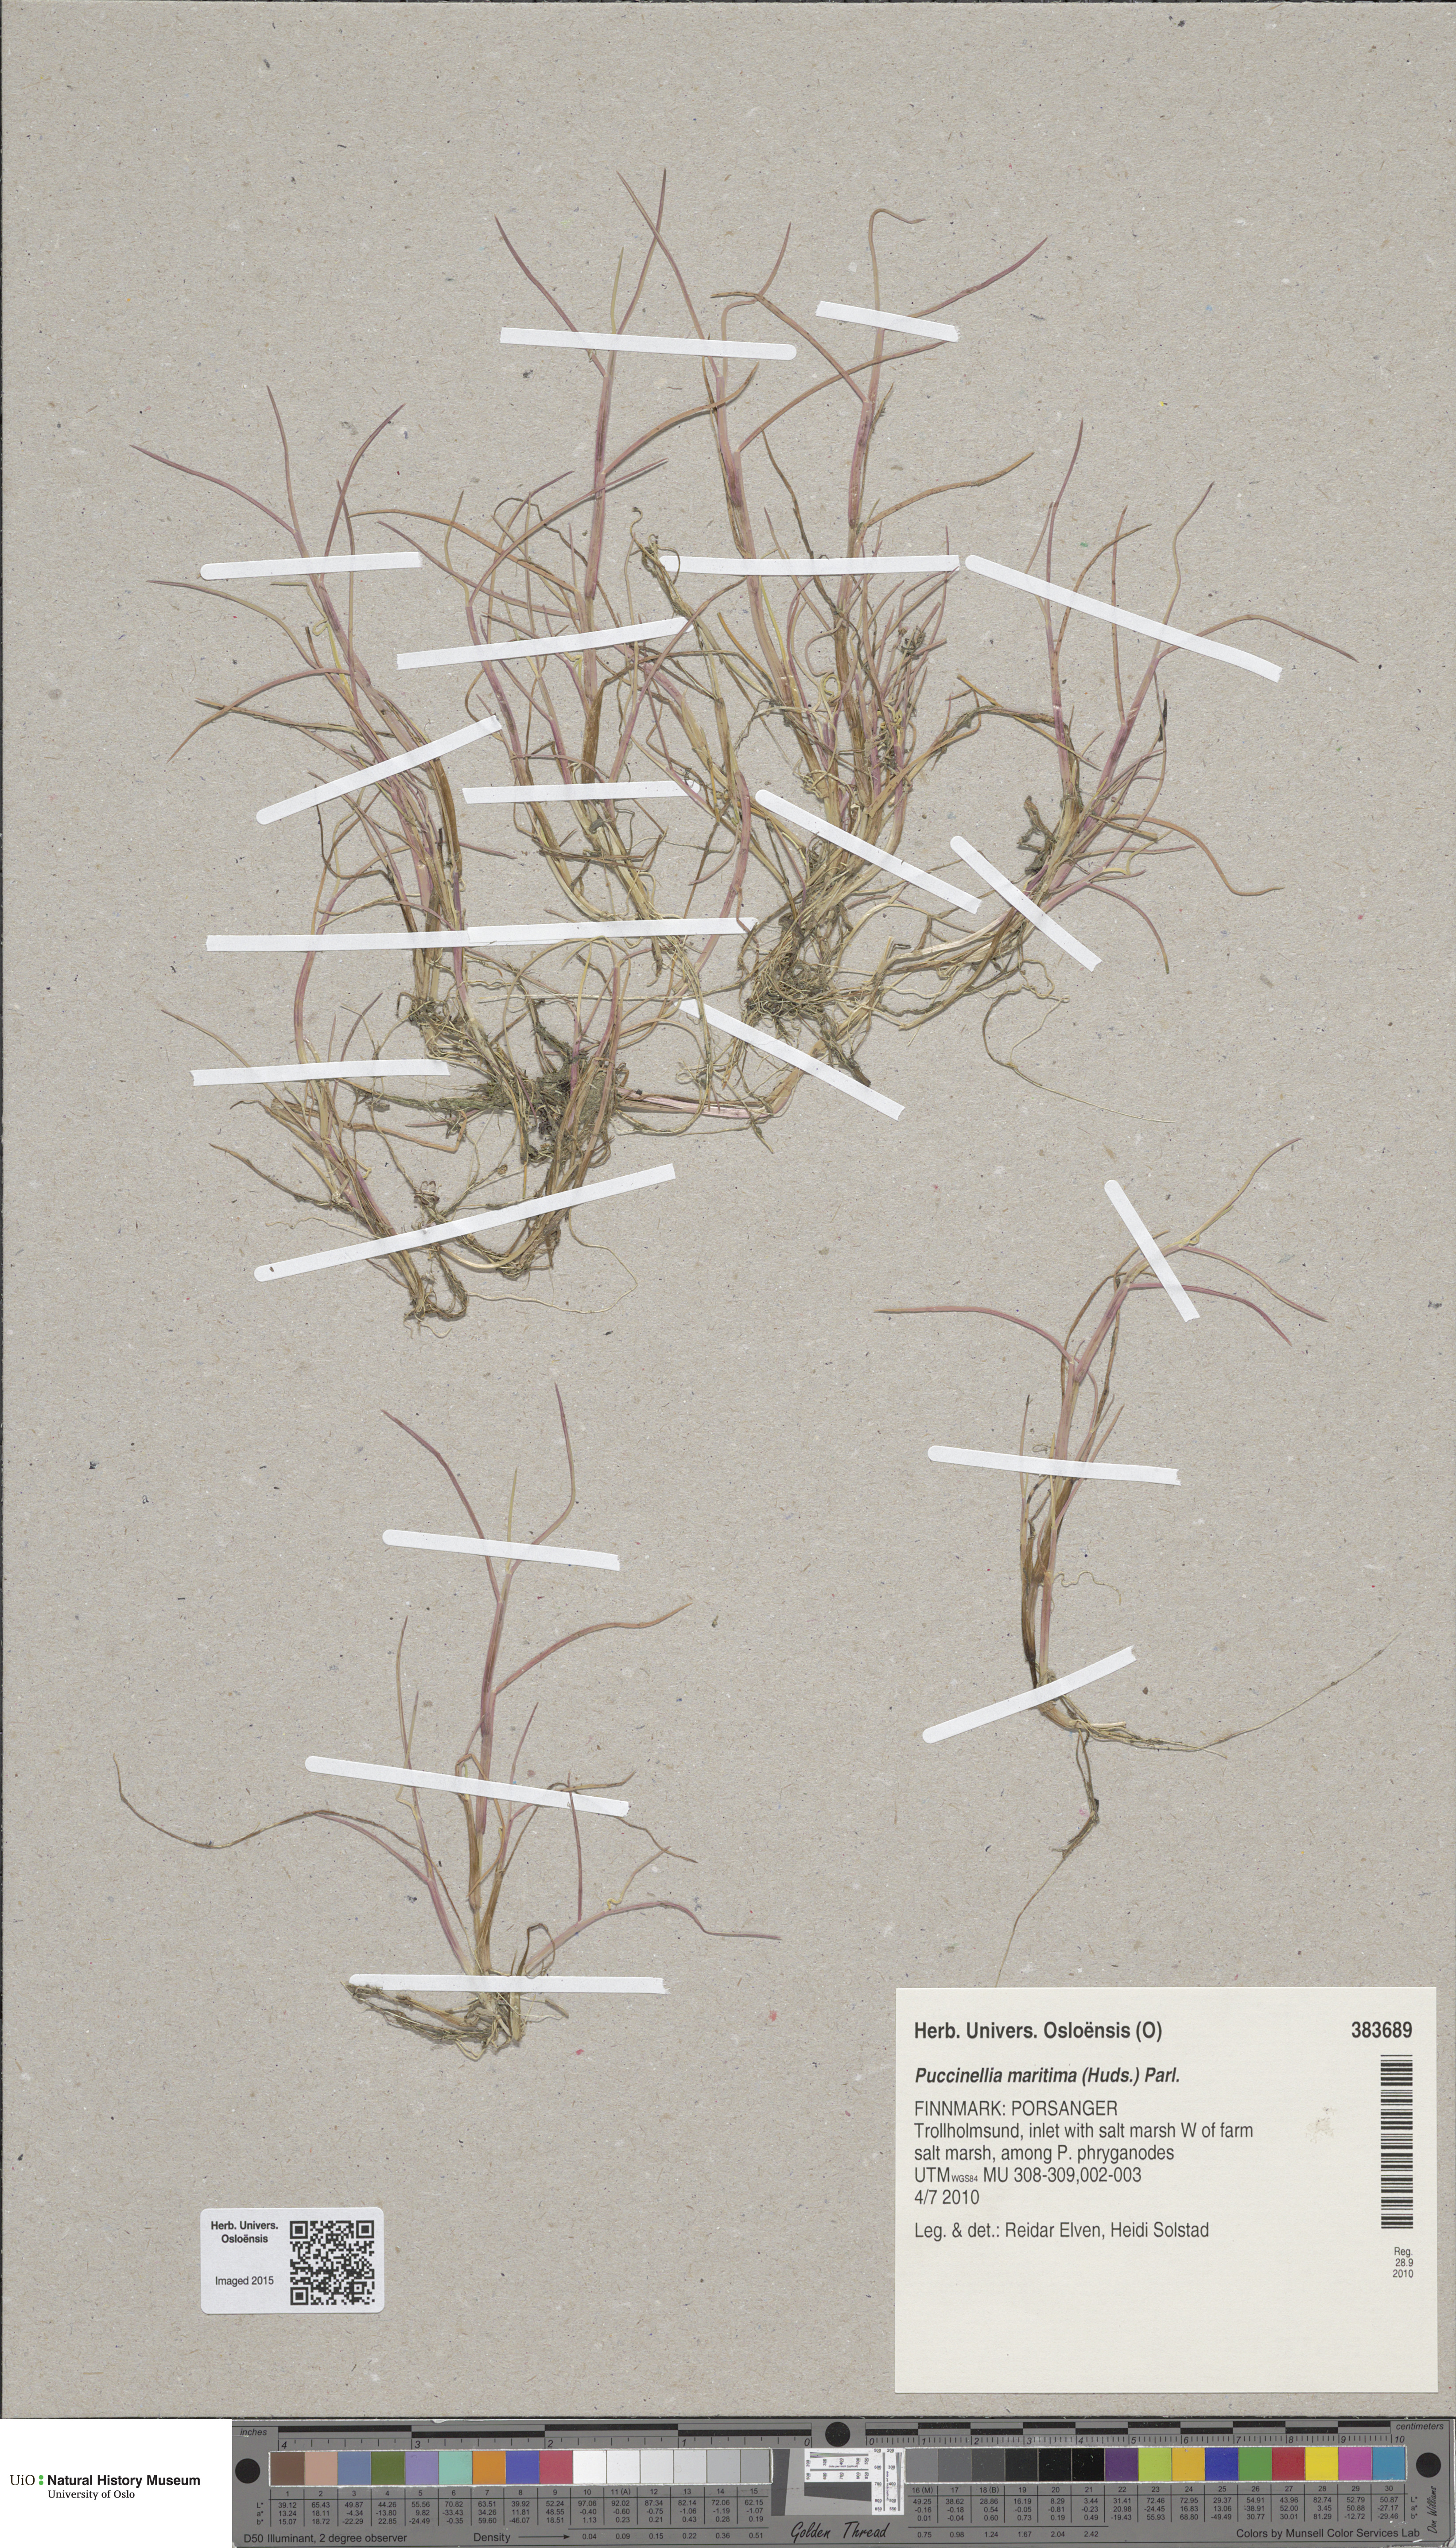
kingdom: Plantae
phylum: Tracheophyta
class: Liliopsida
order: Poales
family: Poaceae
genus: Puccinellia
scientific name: Puccinellia maritima
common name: Common saltmarsh grass
